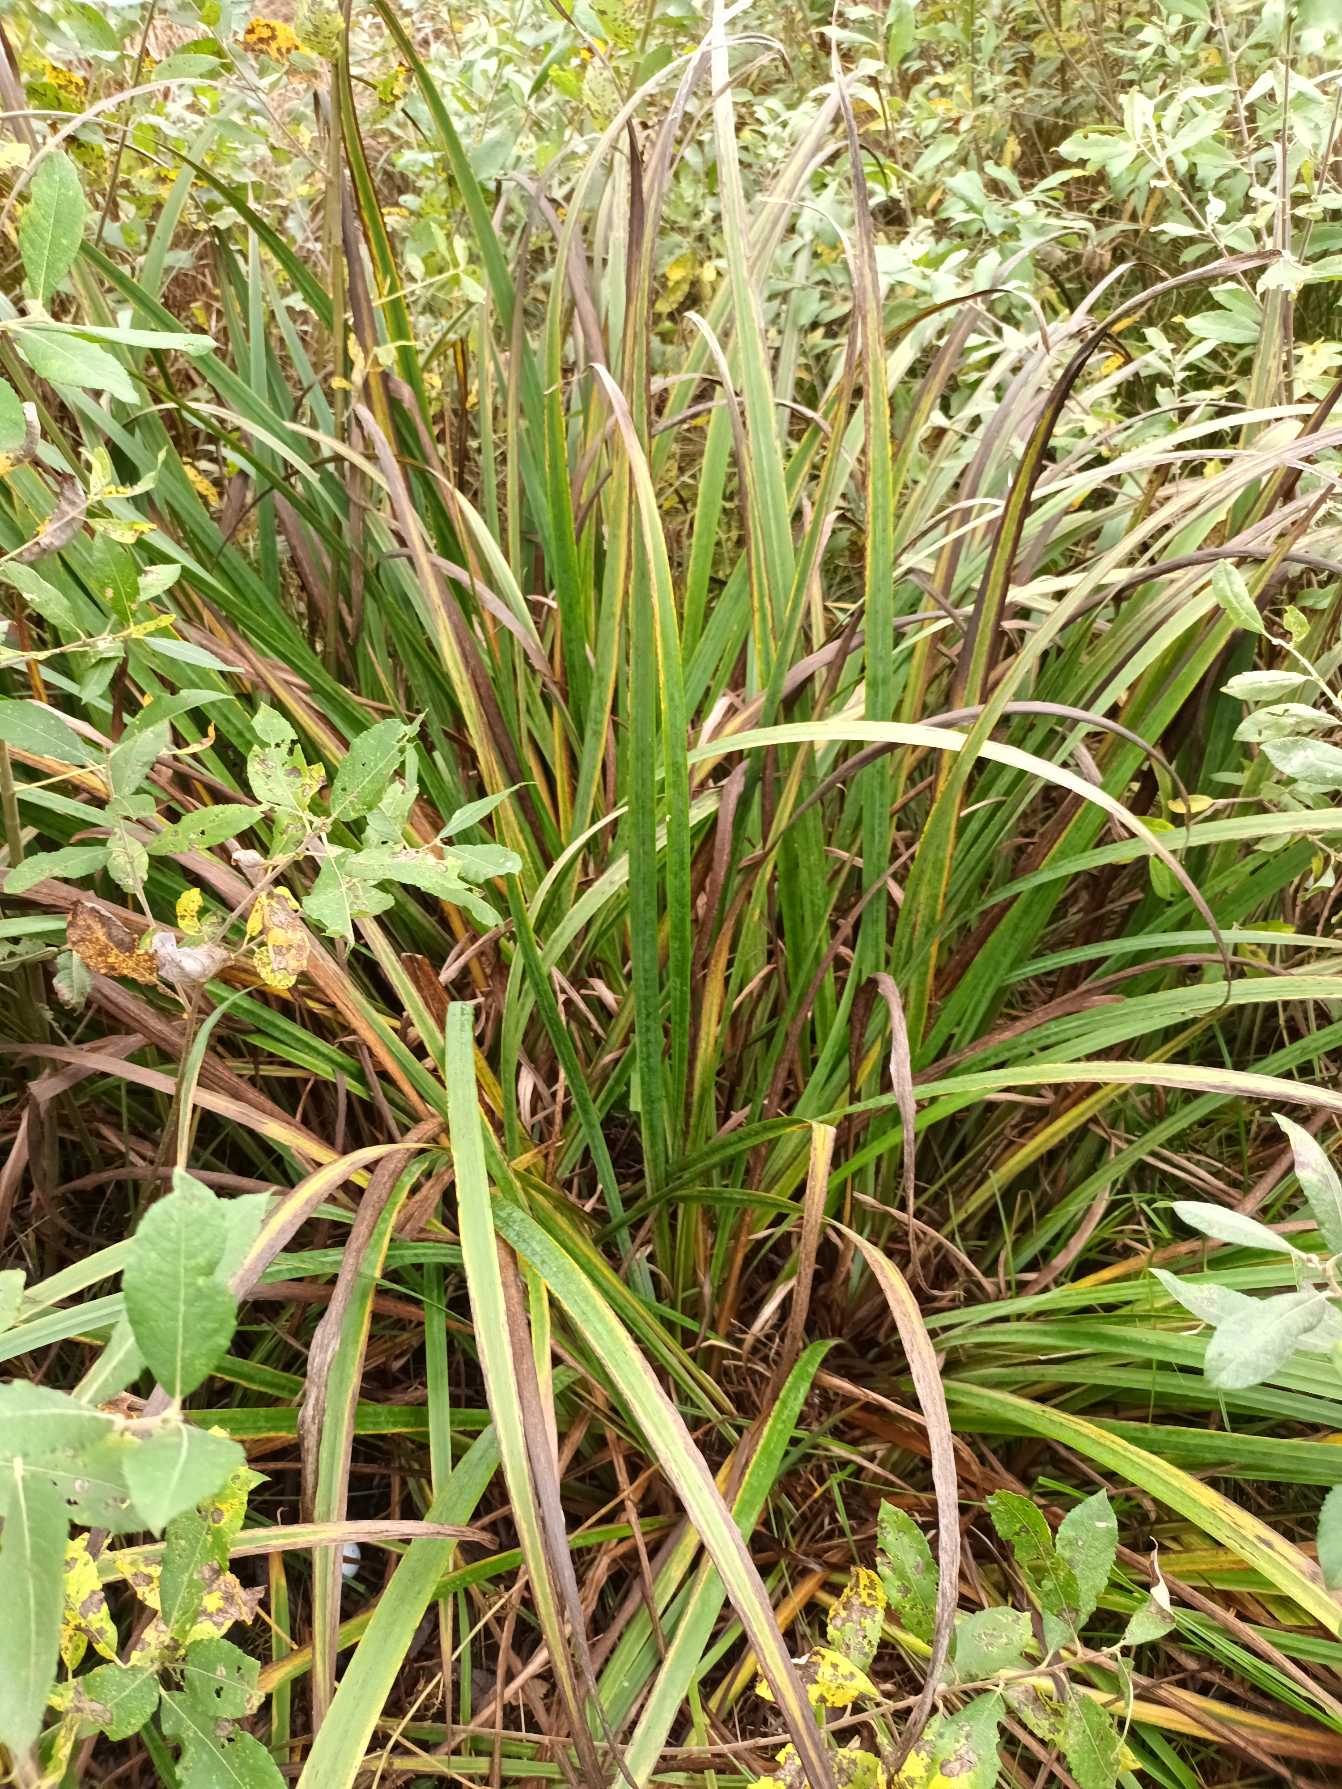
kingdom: Plantae
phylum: Tracheophyta
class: Liliopsida
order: Asparagales
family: Iridaceae
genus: Iris
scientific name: Iris pseudacorus
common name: Gul iris
